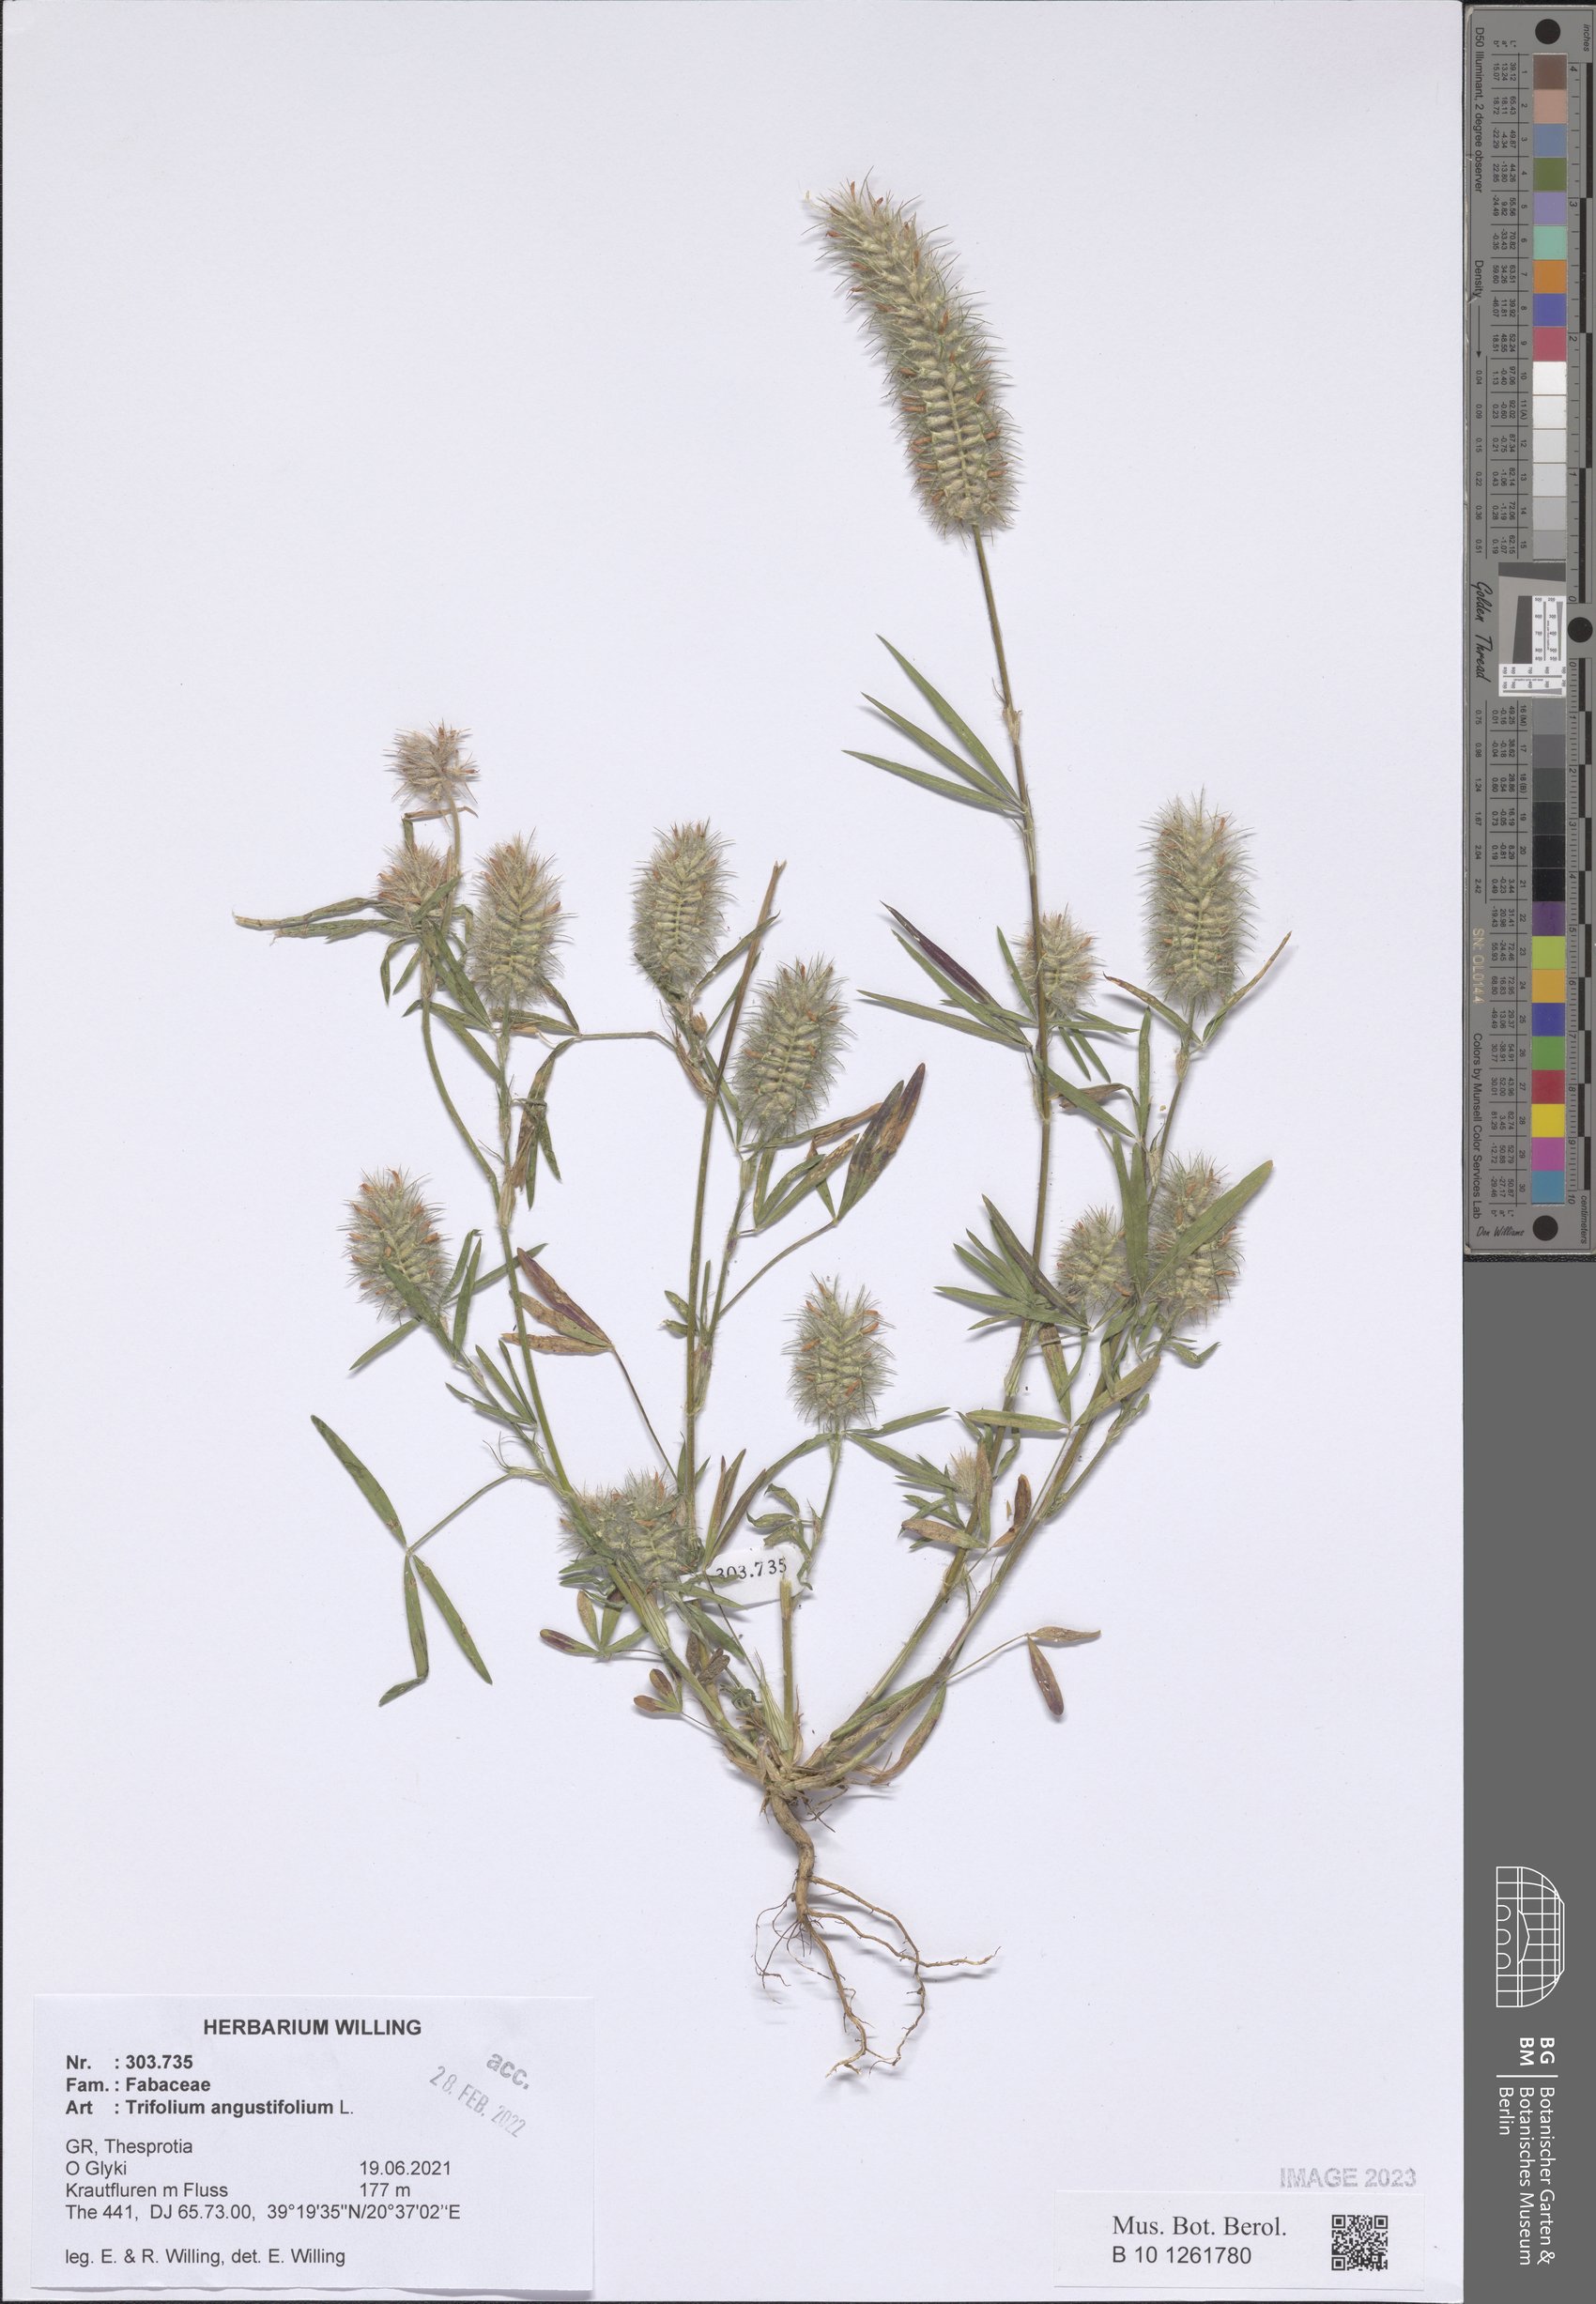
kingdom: Plantae
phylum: Tracheophyta
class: Magnoliopsida
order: Fabales
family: Fabaceae
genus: Trifolium
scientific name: Trifolium angustifolium
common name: Narrow clover
